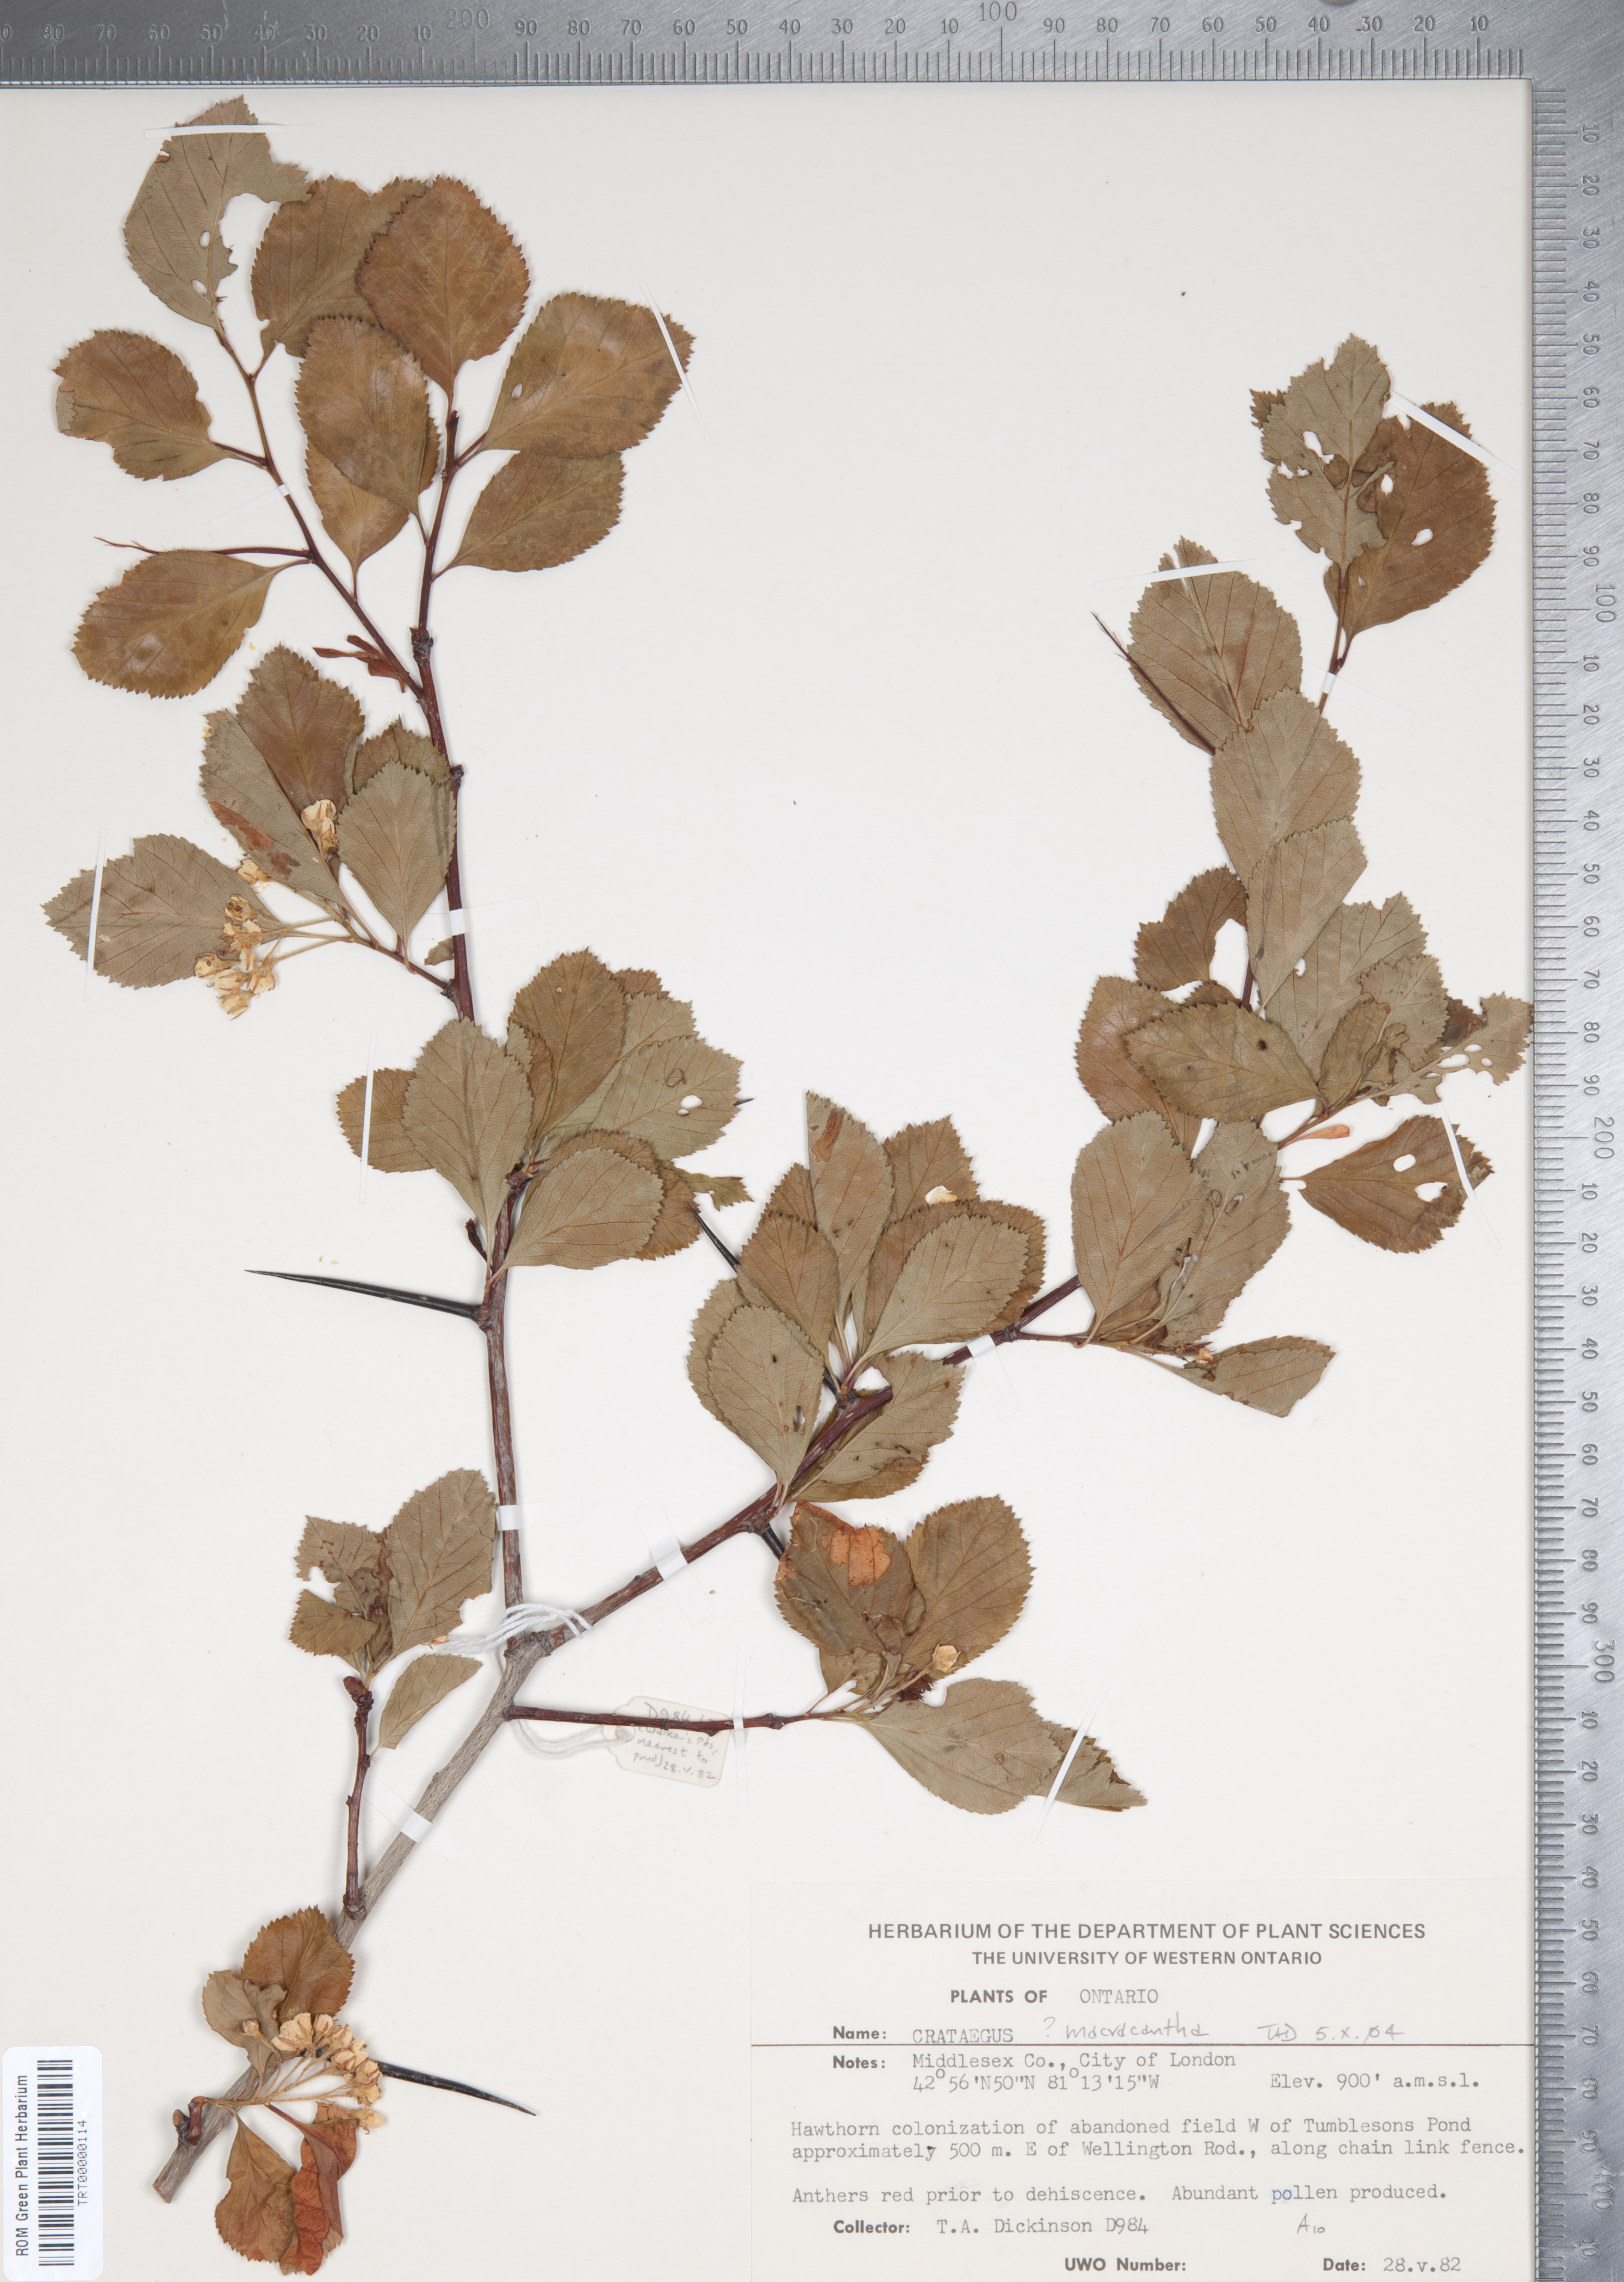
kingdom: Plantae
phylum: Tracheophyta
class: Magnoliopsida
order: Rosales
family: Rosaceae
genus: Crataegus
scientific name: Crataegus macracantha
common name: Large-thorn hawthorn
